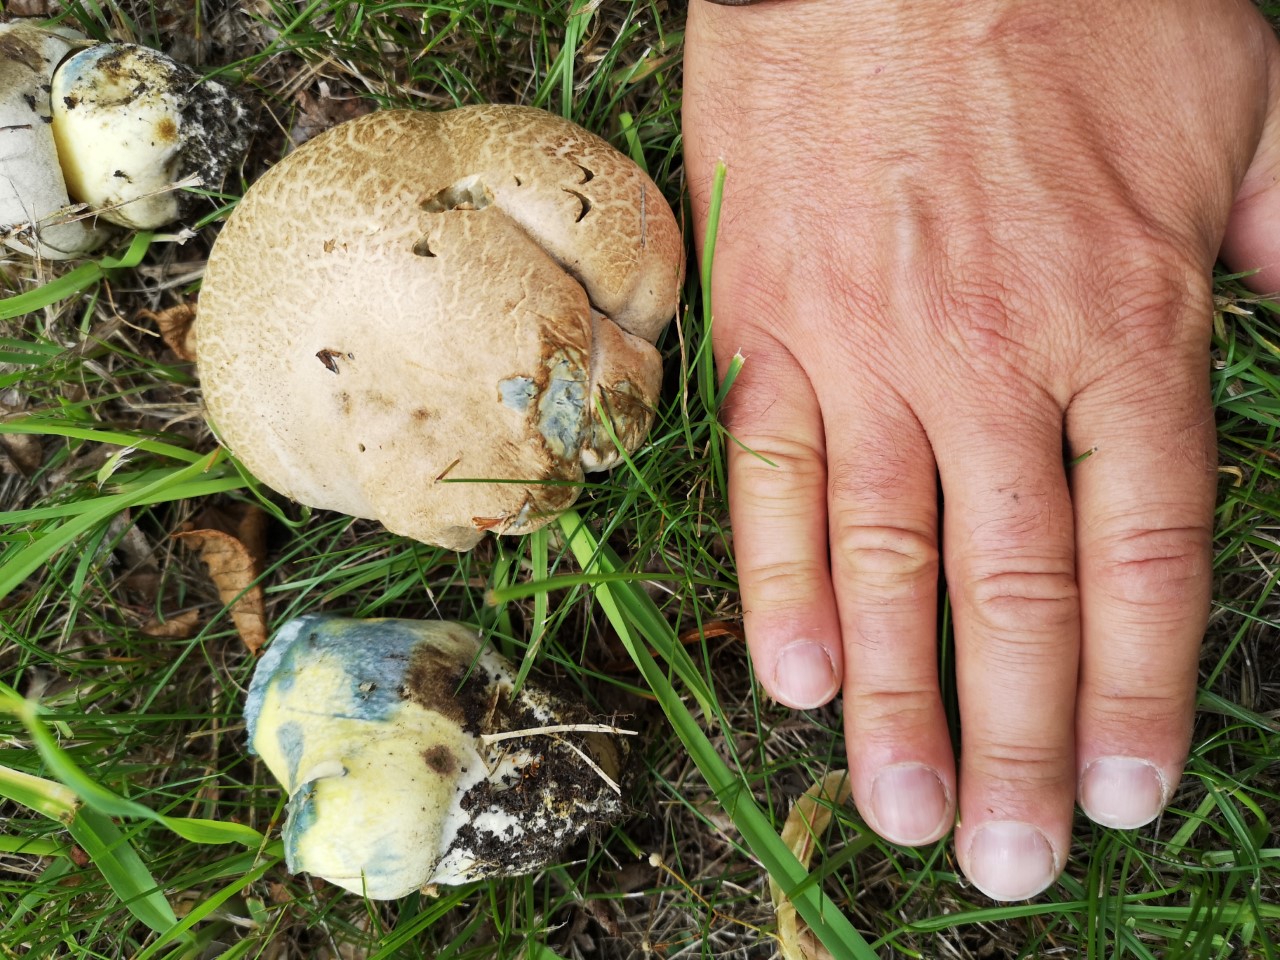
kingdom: Fungi
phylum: Basidiomycota
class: Agaricomycetes
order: Boletales
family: Boletaceae
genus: Caloboletus
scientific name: Caloboletus radicans
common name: rod-rørhat
